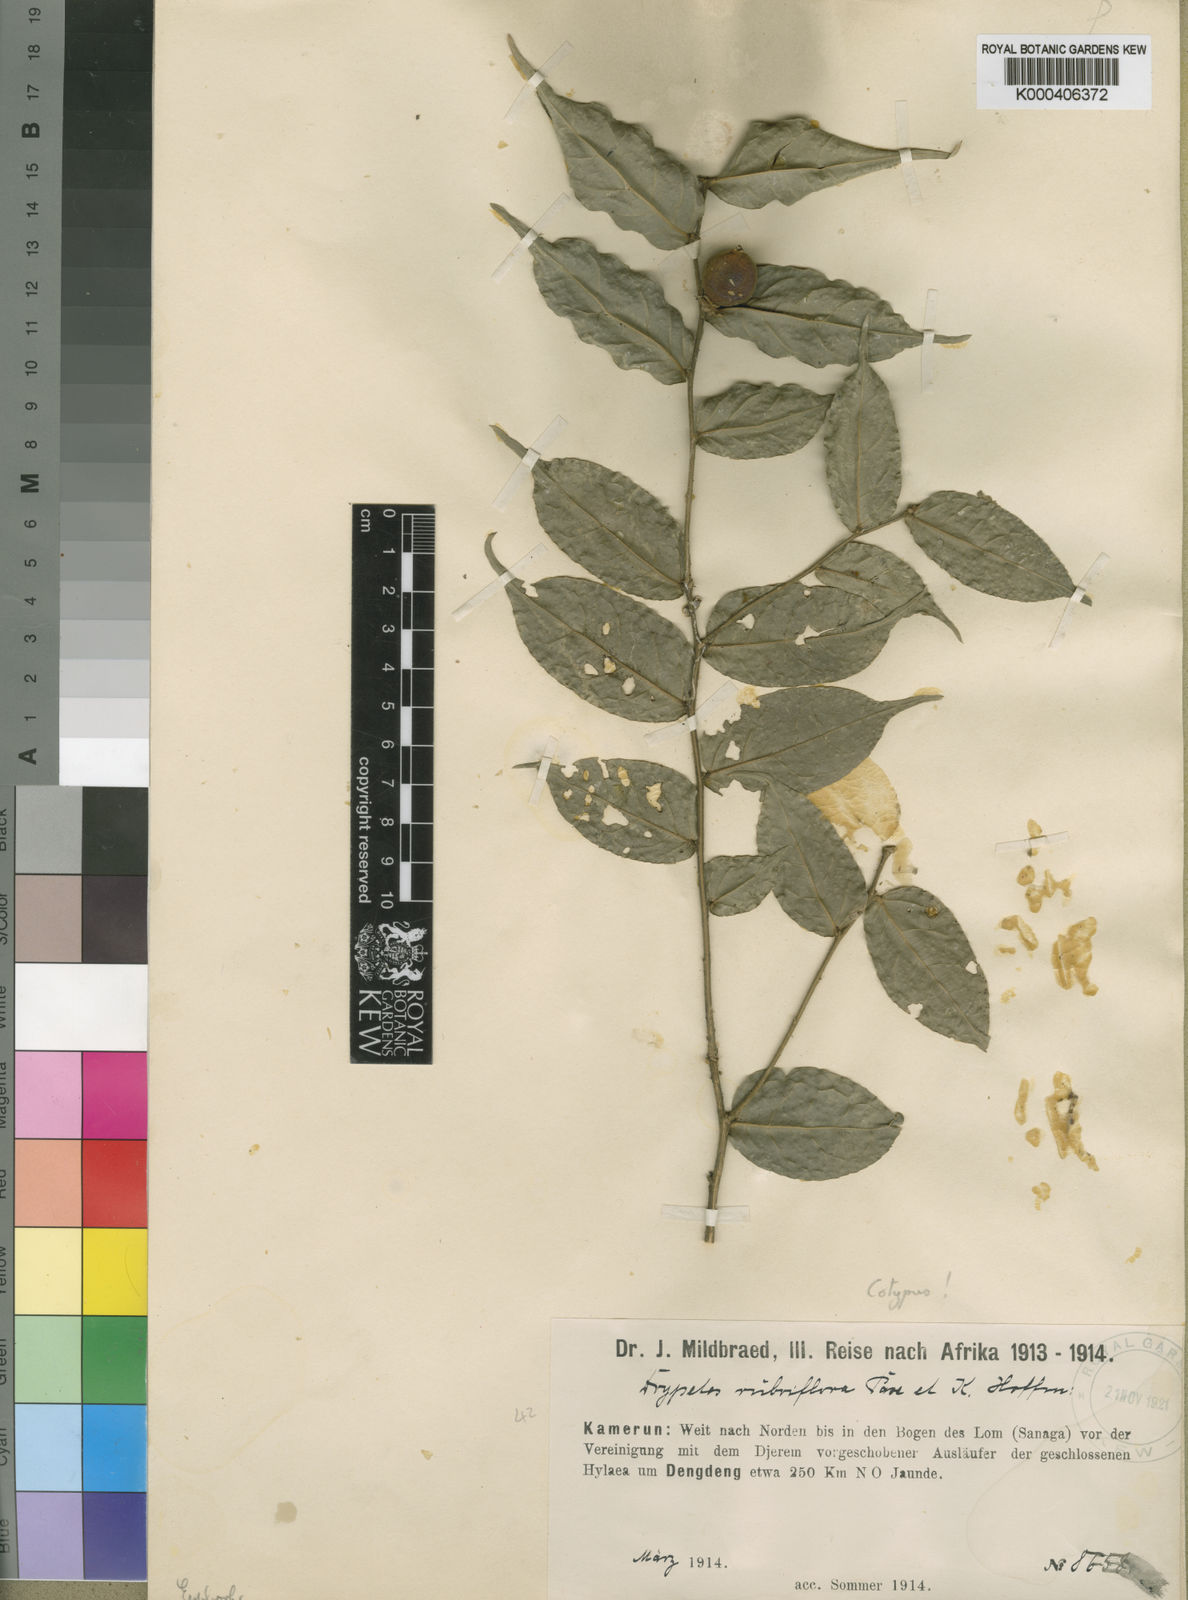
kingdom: Plantae
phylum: Tracheophyta
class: Magnoliopsida
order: Malpighiales
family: Putranjivaceae
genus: Drypetes
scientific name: Drypetes rubriflora
